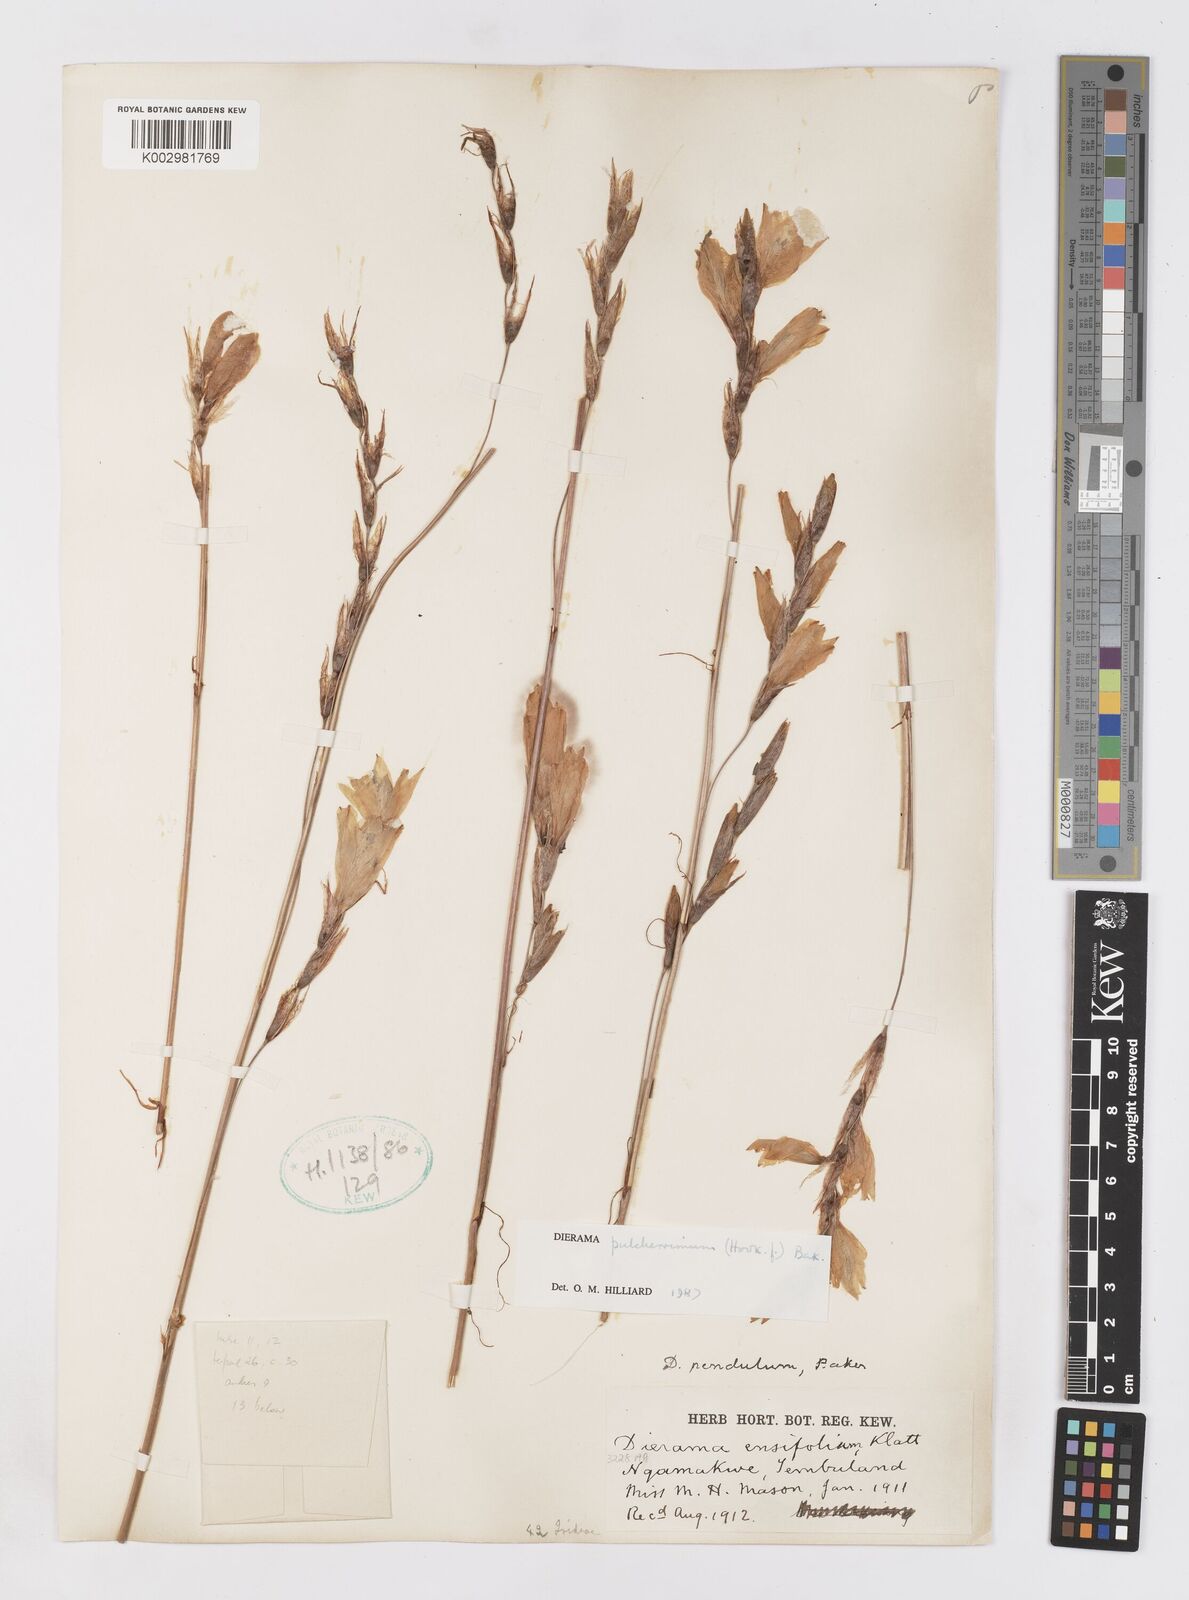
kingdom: Plantae
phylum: Tracheophyta
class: Liliopsida
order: Asparagales
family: Iridaceae
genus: Dierama
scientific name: Dierama pulcherrimum
